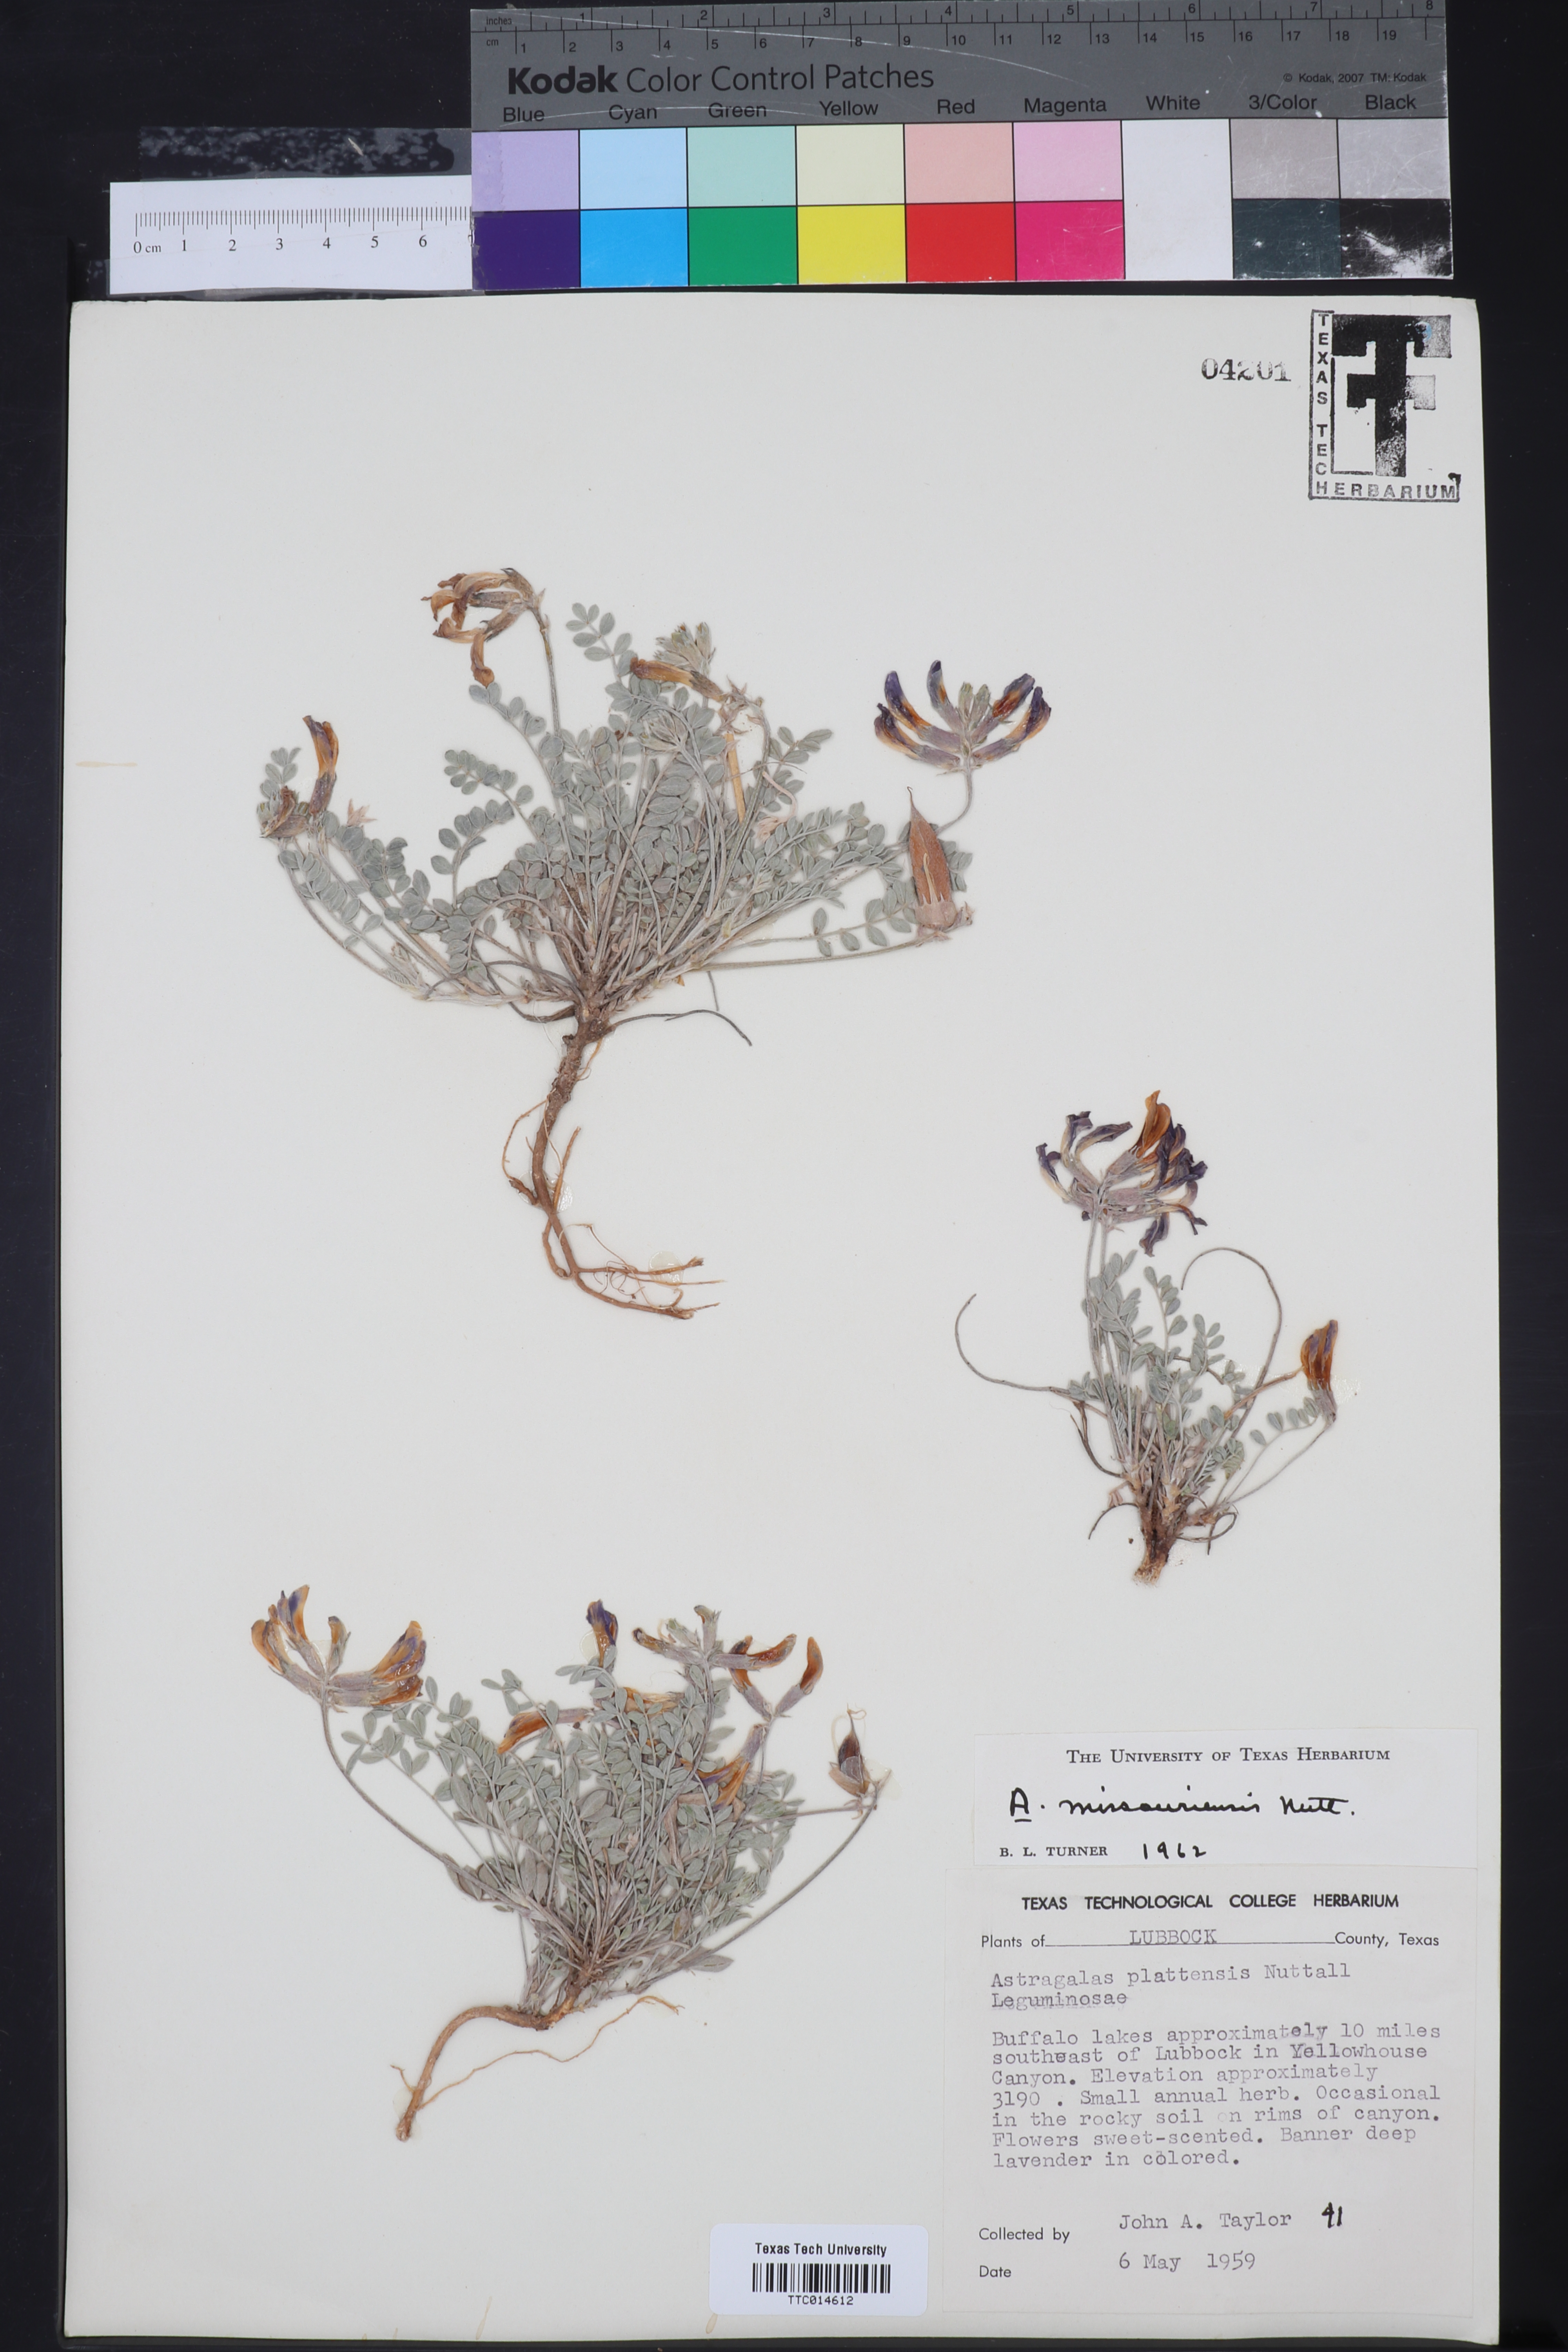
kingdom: Plantae
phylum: Tracheophyta
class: Magnoliopsida
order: Fabales
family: Fabaceae
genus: Astragalus
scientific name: Astragalus missouriensis
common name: Missouri milk-vetch
